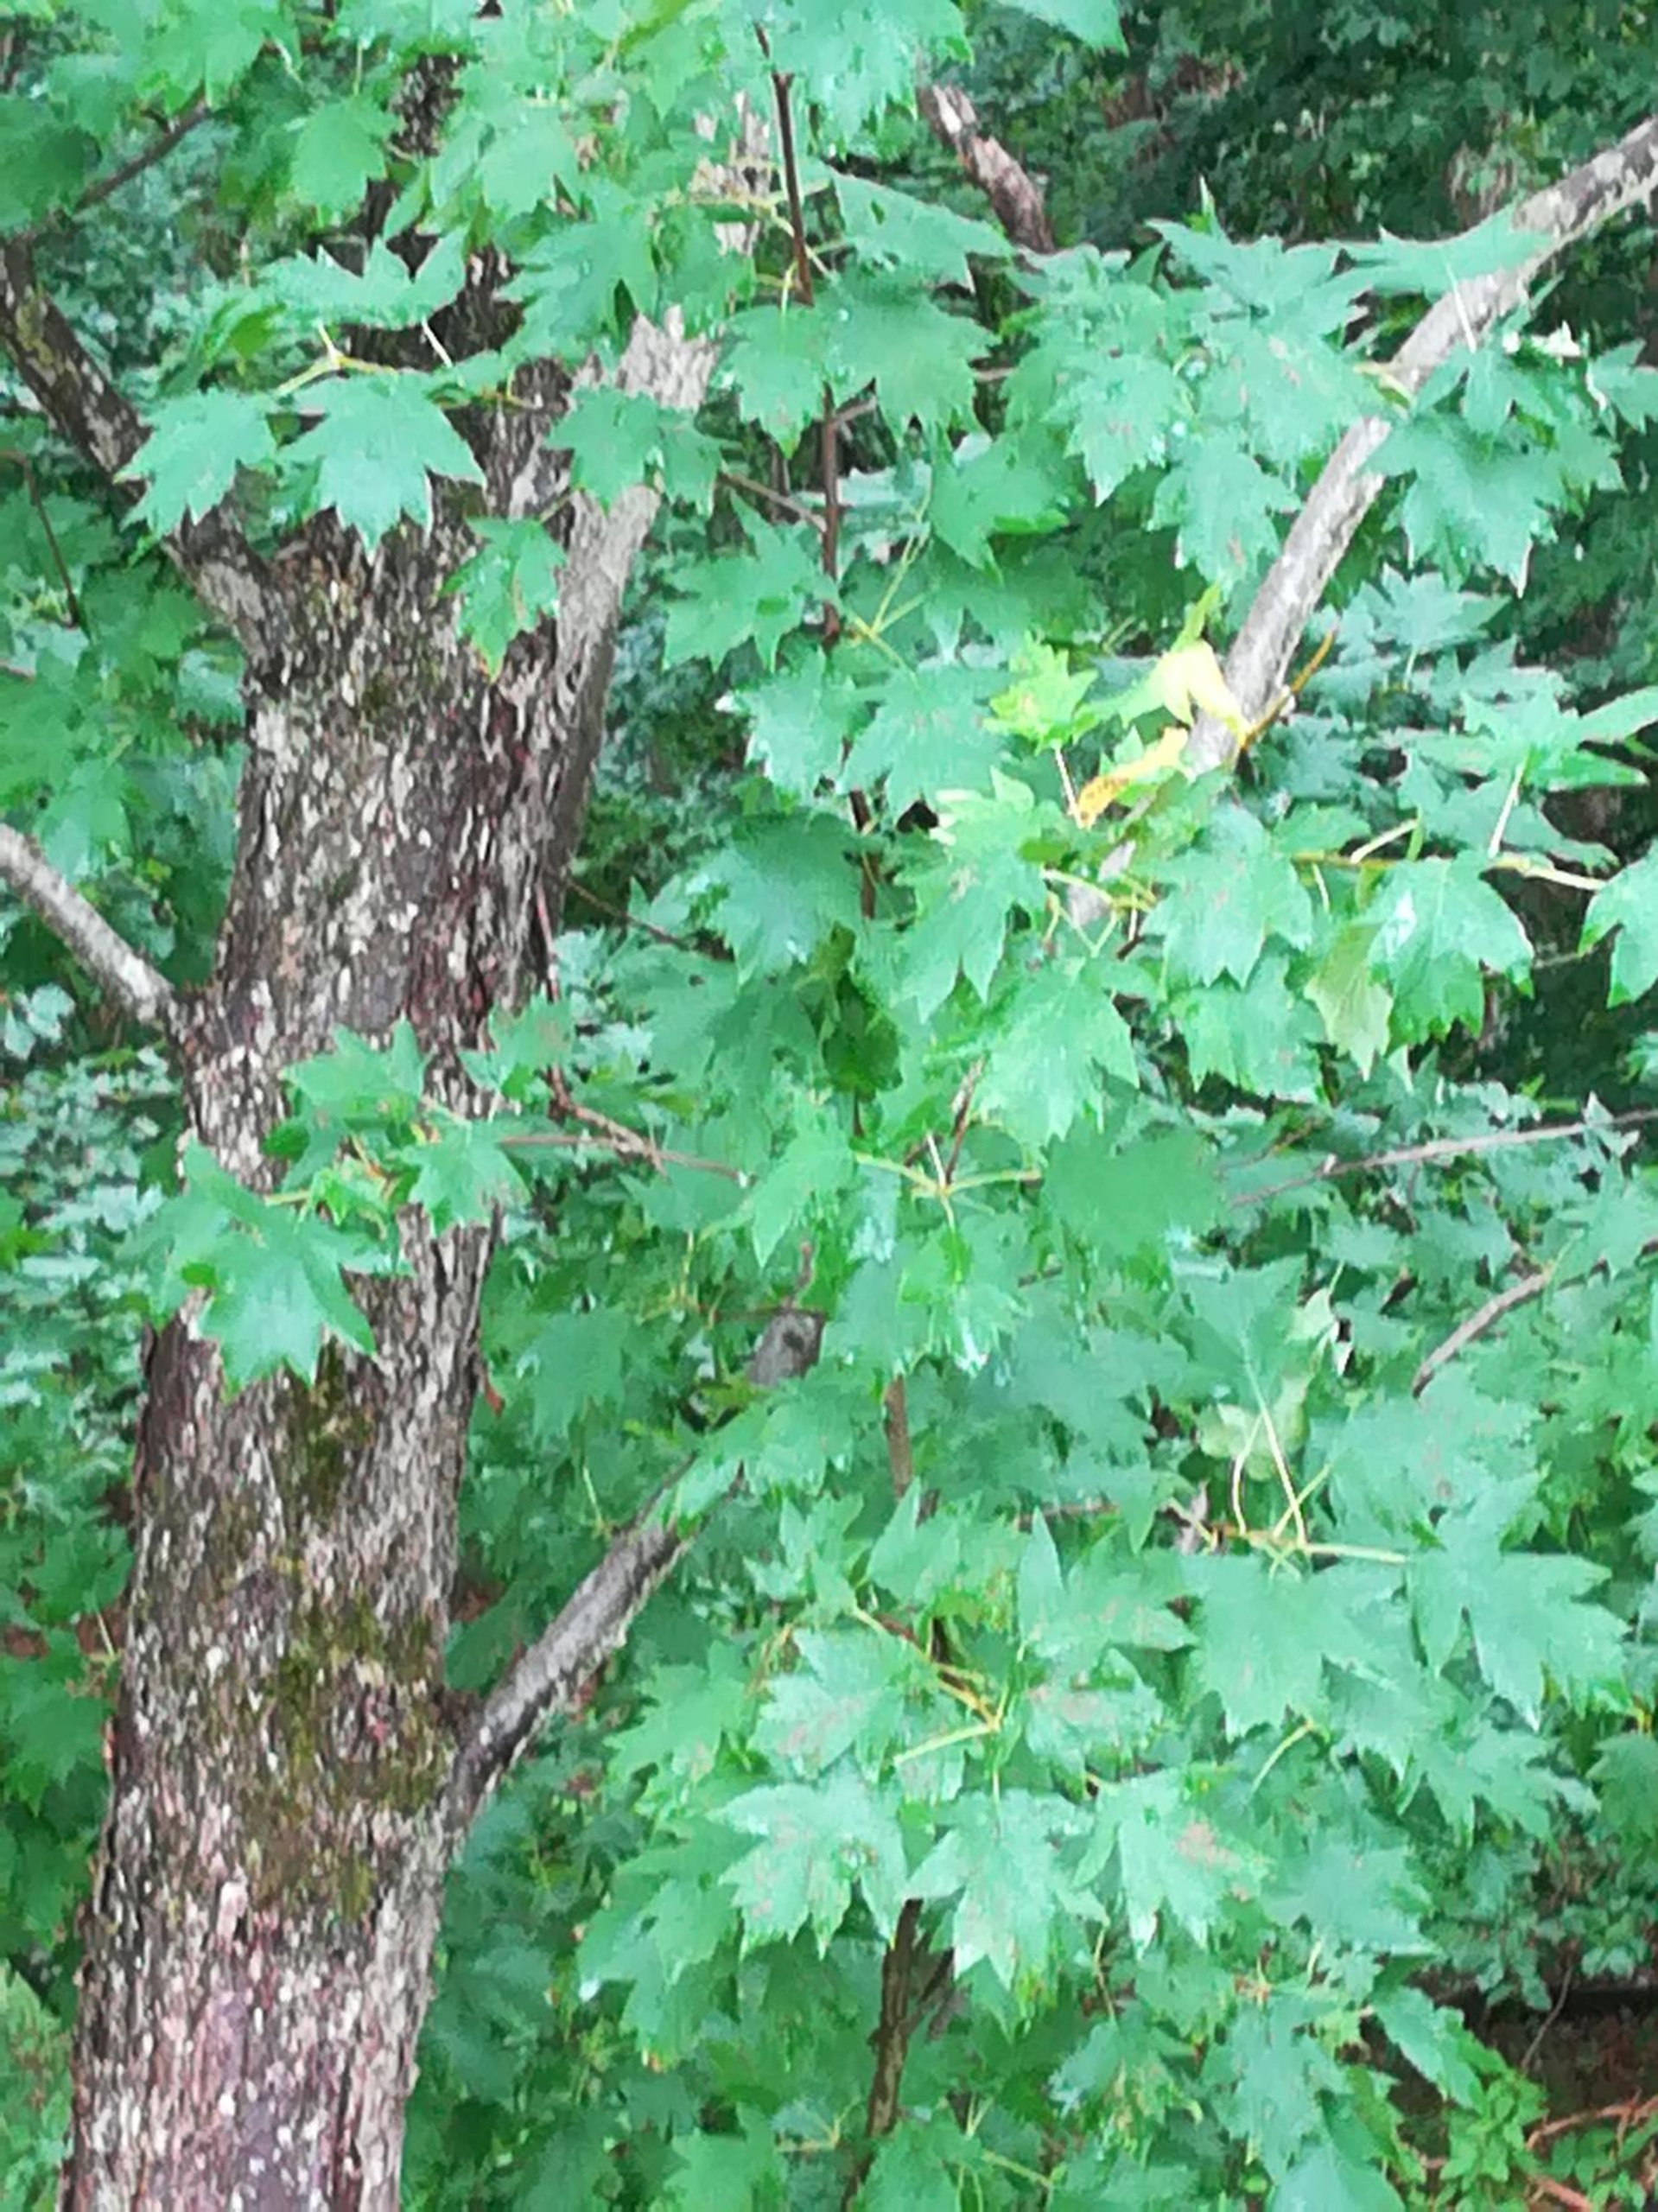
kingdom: Plantae
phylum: Tracheophyta
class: Magnoliopsida
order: Rosales
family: Rosaceae
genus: Torminalis
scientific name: Torminalis glaberrima
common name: Tarmvrid-røn
